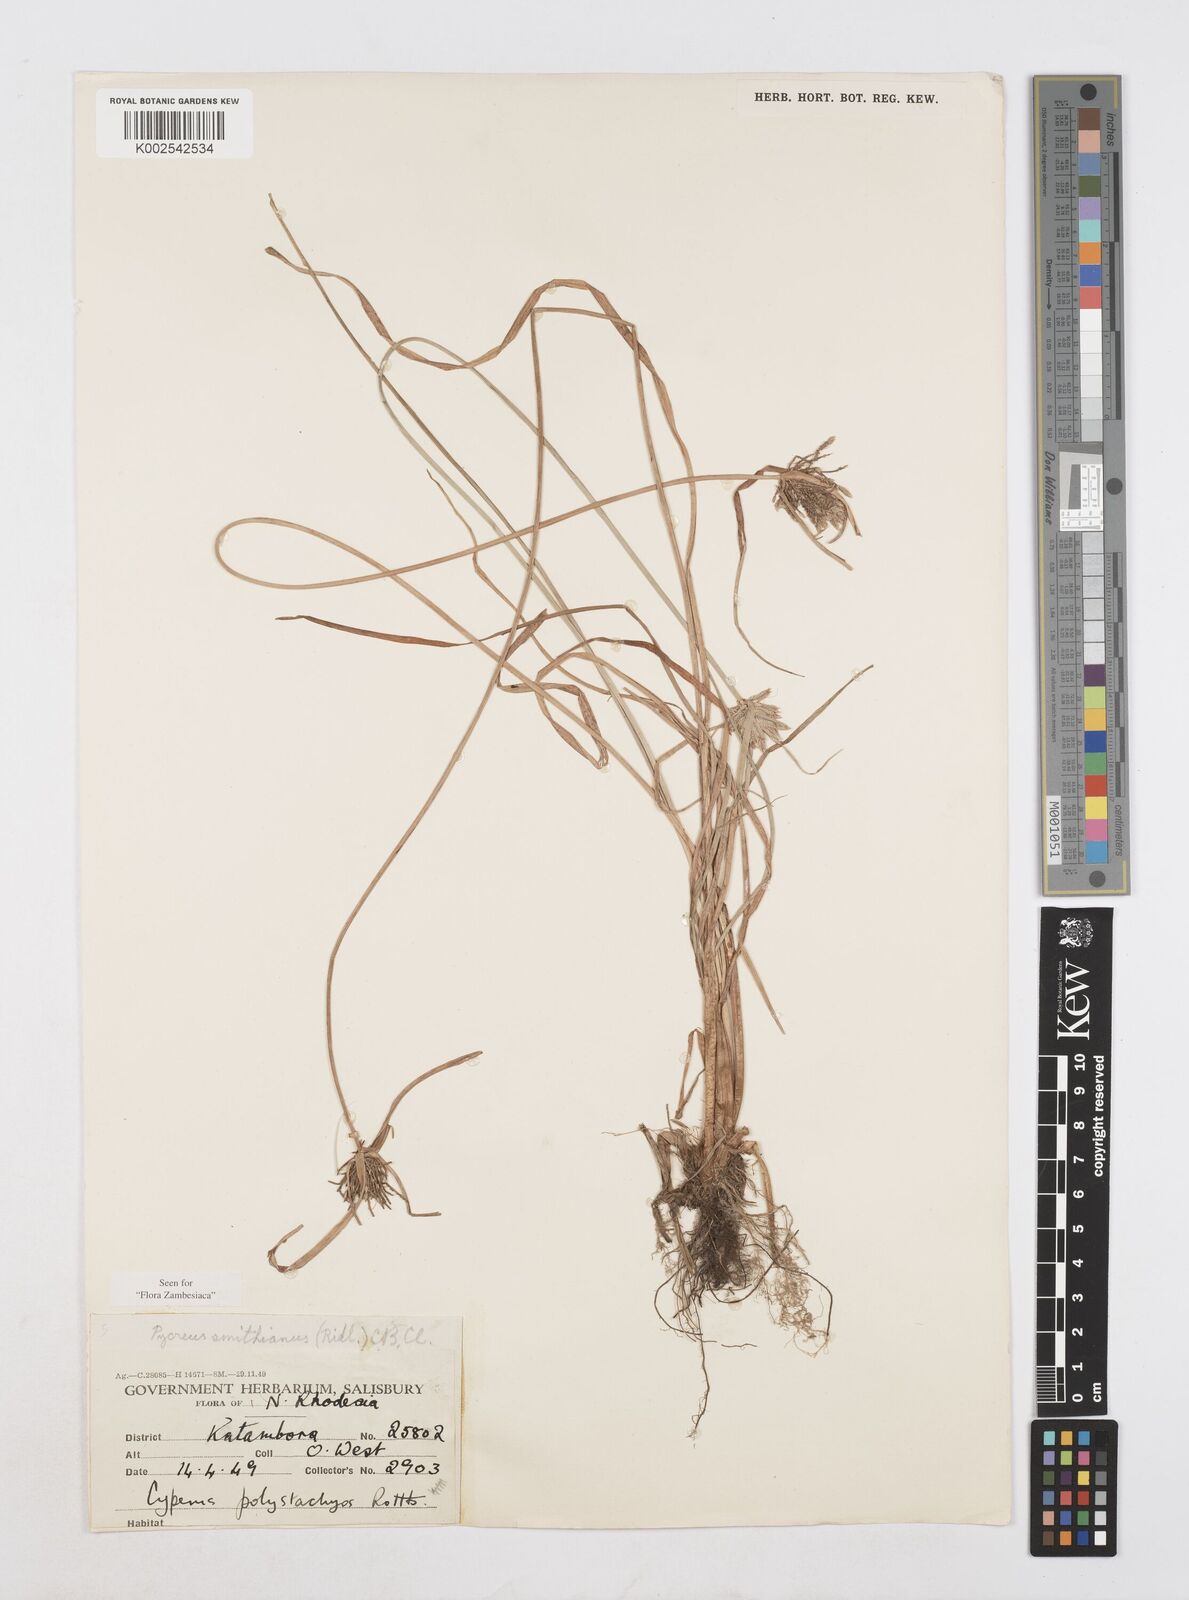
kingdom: Plantae
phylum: Tracheophyta
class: Liliopsida
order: Poales
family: Cyperaceae
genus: Cyperus
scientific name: Cyperus smithianus
